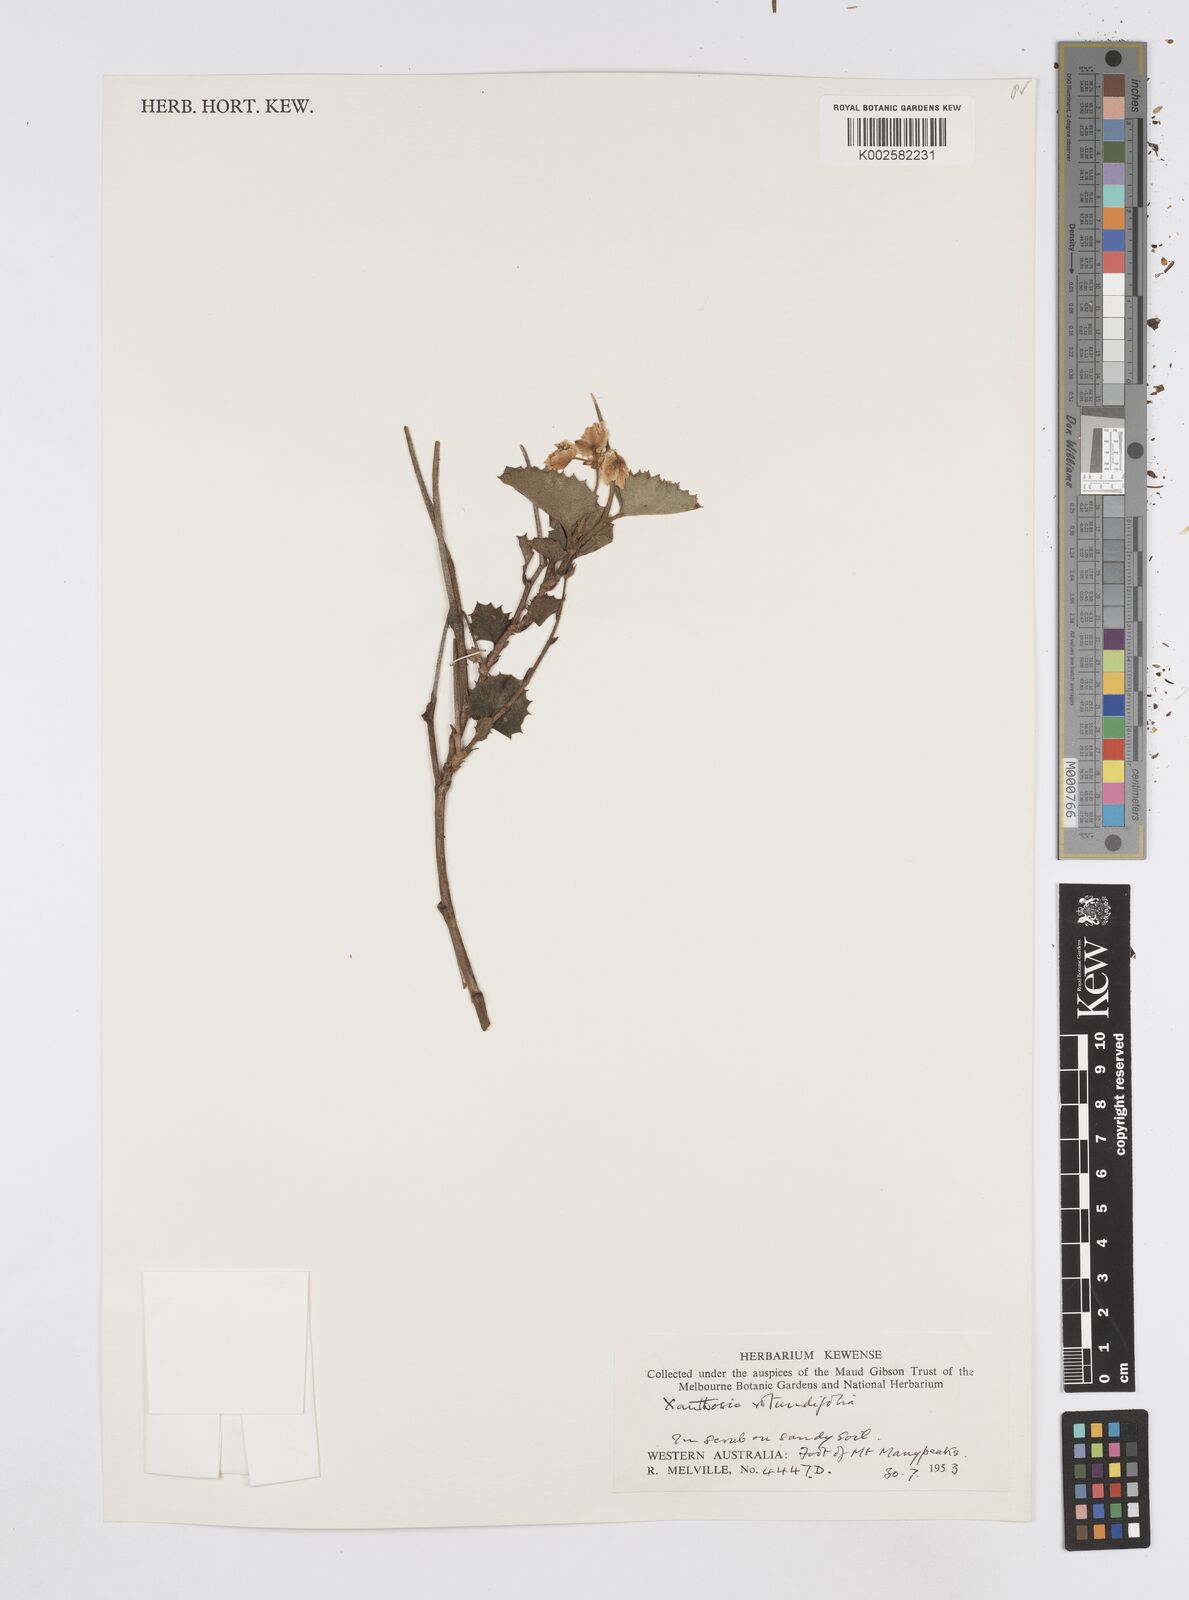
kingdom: Plantae
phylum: Tracheophyta
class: Magnoliopsida
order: Apiales
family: Apiaceae
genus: Xanthosia
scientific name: Xanthosia rotundifolia
